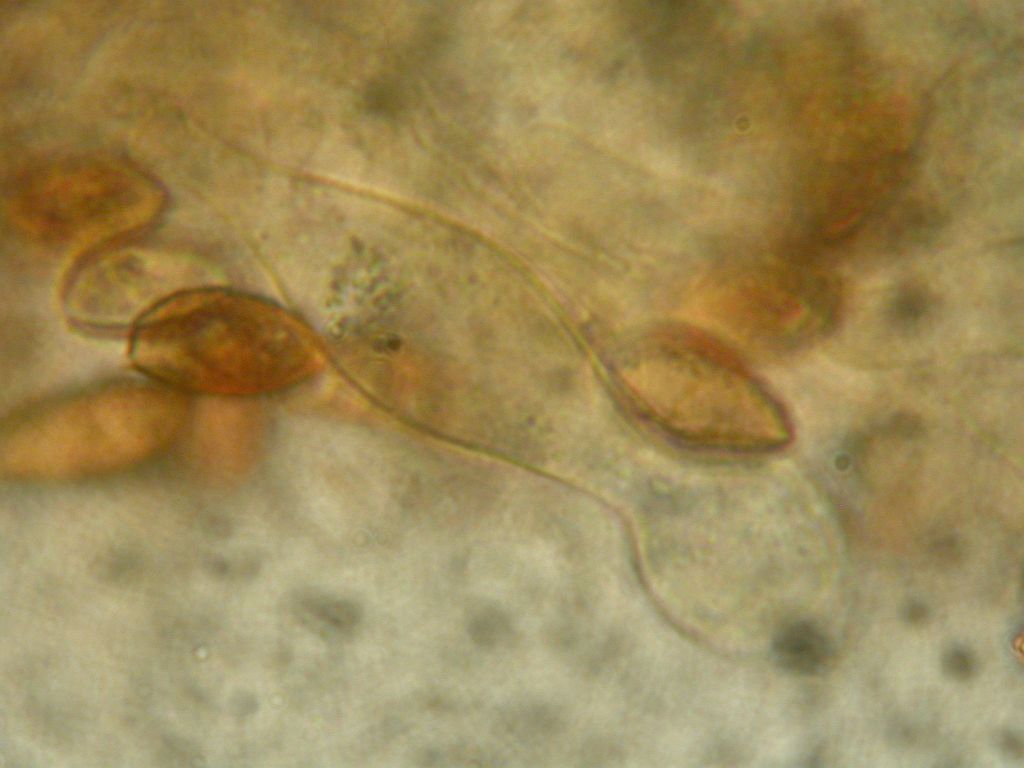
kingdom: Fungi
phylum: Basidiomycota
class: Agaricomycetes
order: Agaricales
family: Hymenogastraceae
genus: Galerina
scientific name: Galerina jaapii
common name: hvidbæltet hjelmhat
